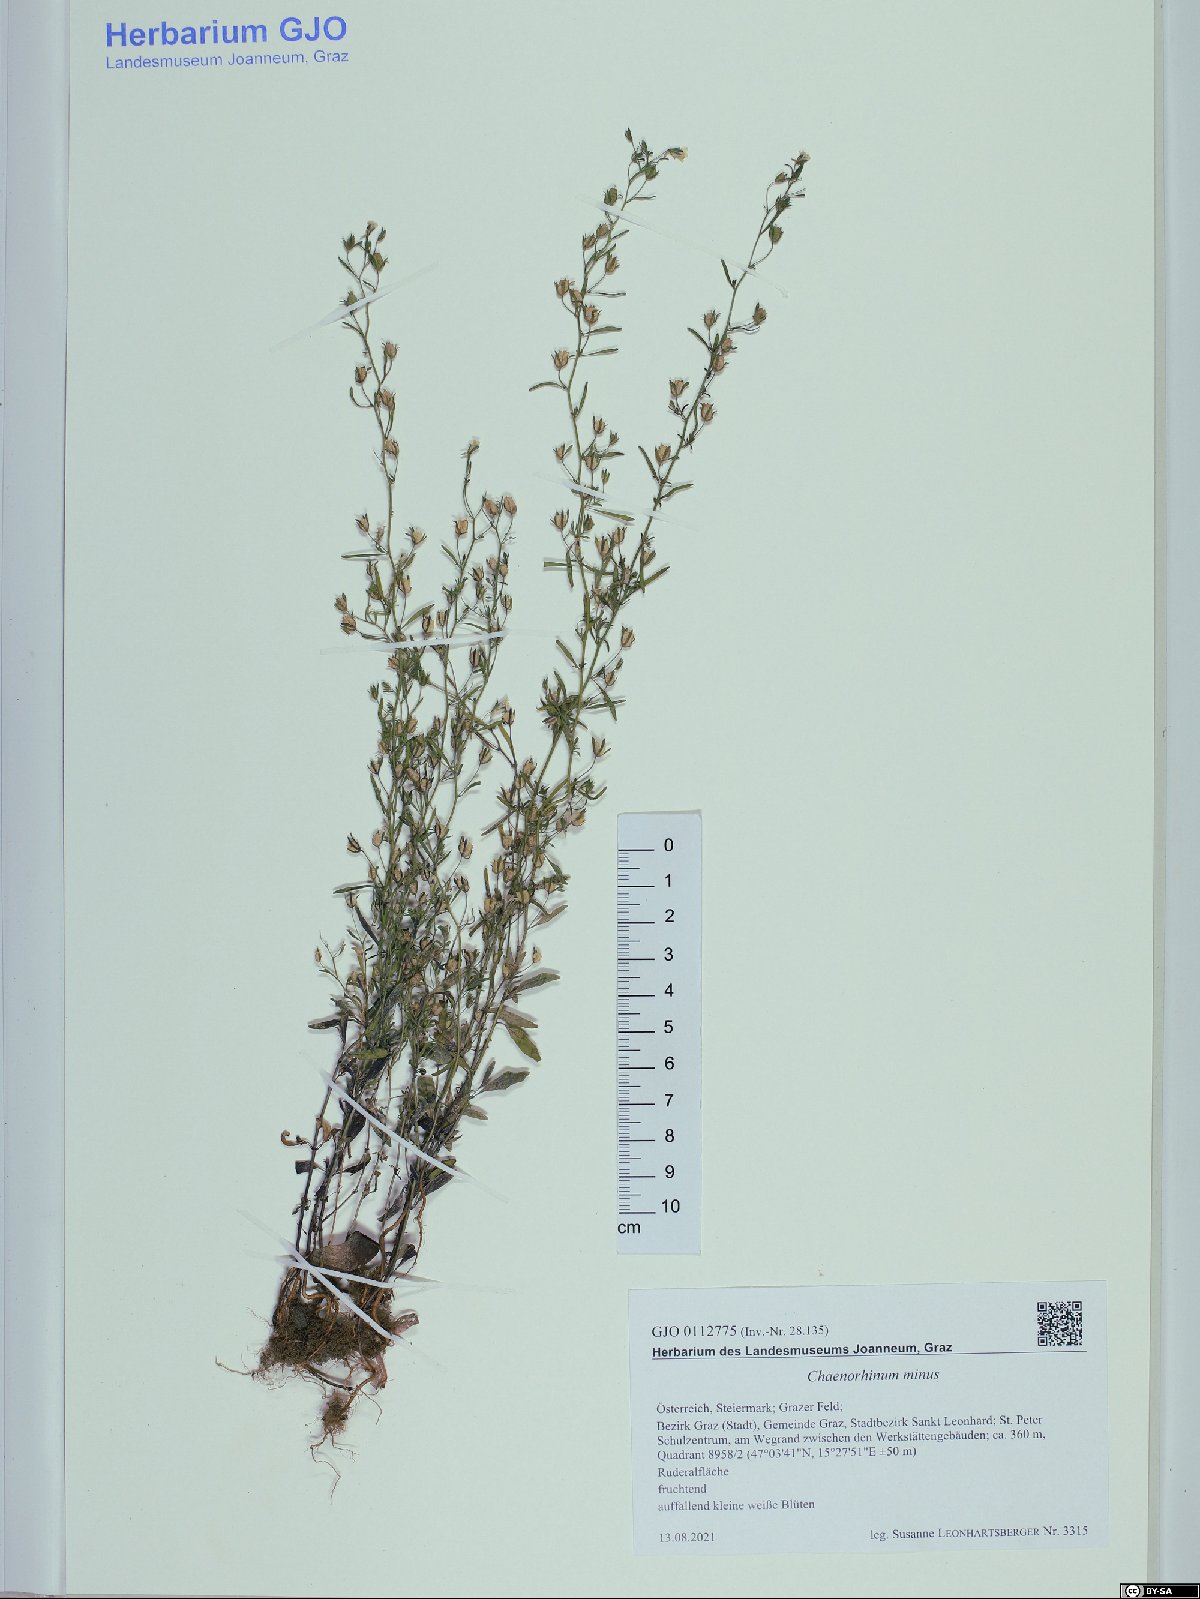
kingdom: Plantae
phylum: Tracheophyta
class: Magnoliopsida
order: Lamiales
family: Plantaginaceae
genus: Chaenorhinum
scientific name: Chaenorhinum minus
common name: Dwarf snapdragon
